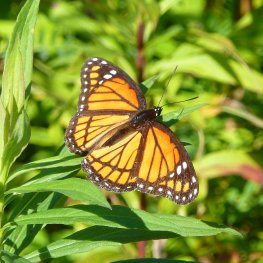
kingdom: Animalia
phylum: Arthropoda
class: Insecta
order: Lepidoptera
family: Nymphalidae
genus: Limenitis
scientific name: Limenitis archippus
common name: Viceroy
